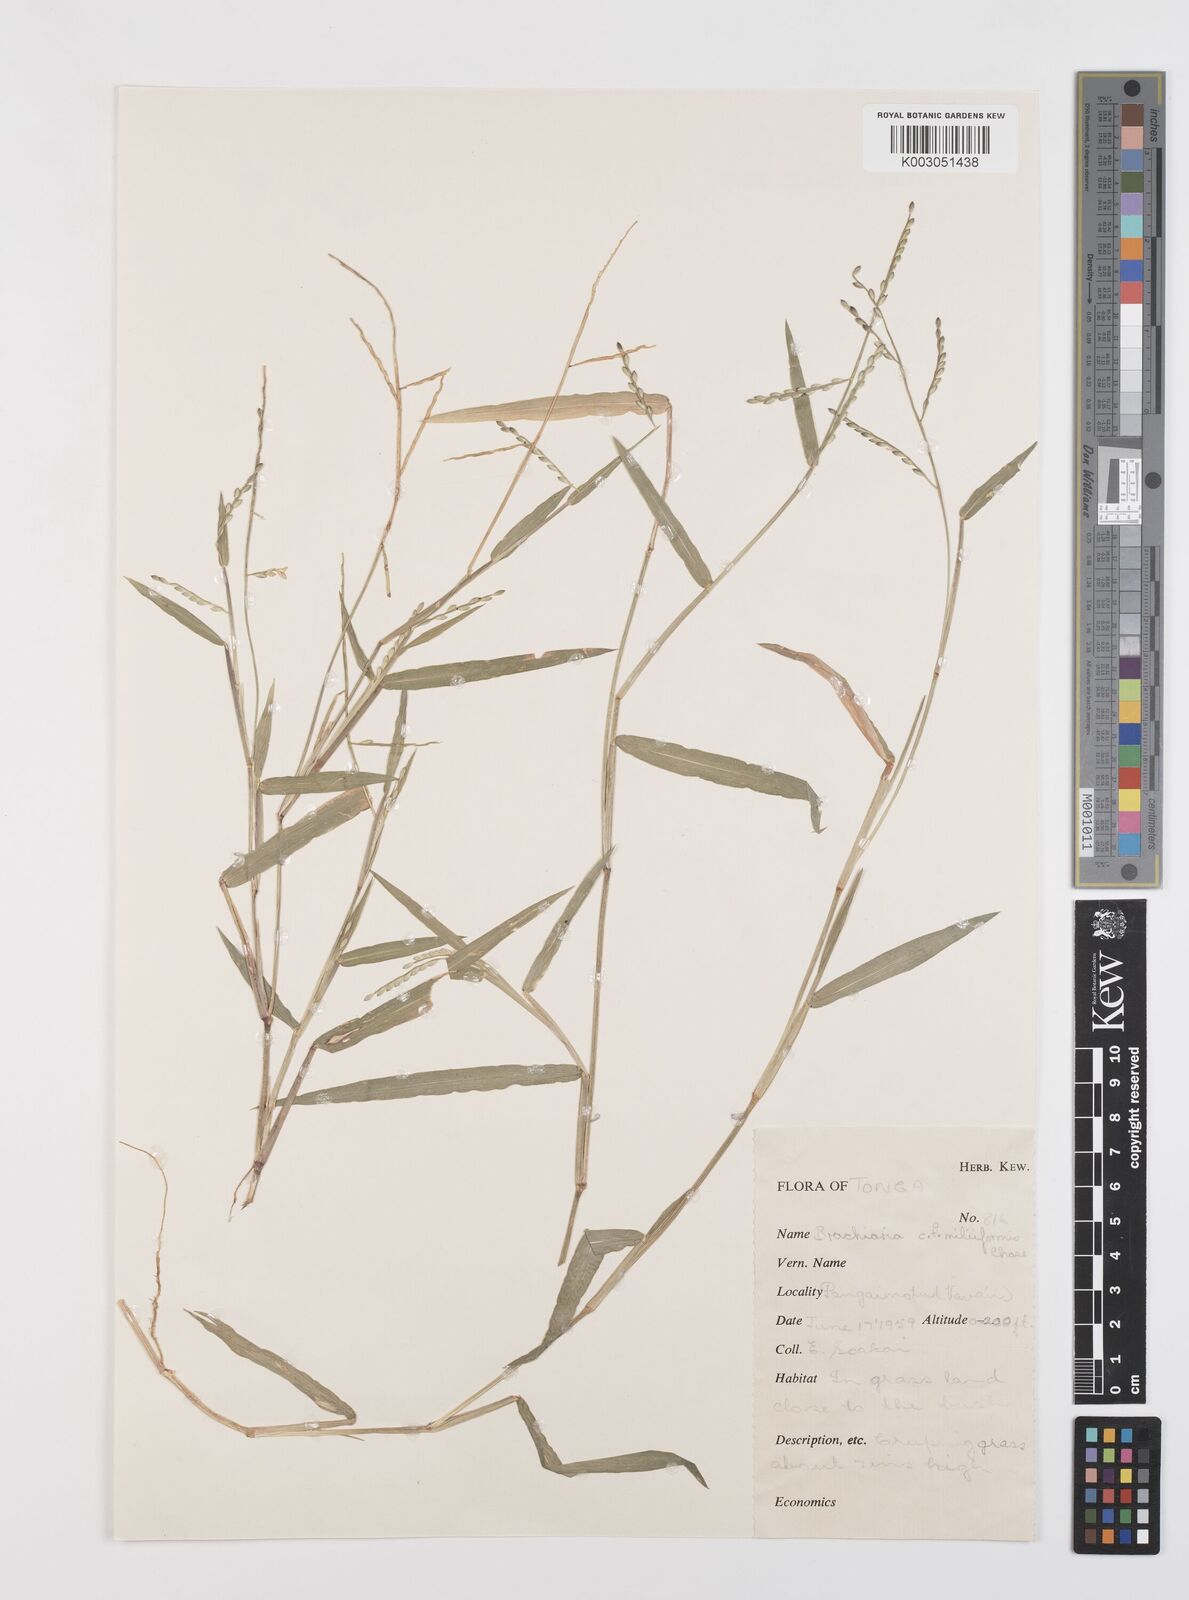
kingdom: Plantae
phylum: Tracheophyta
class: Liliopsida
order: Poales
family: Poaceae
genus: Urochloa
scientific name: Urochloa subquadripara
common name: Armgrass millet
